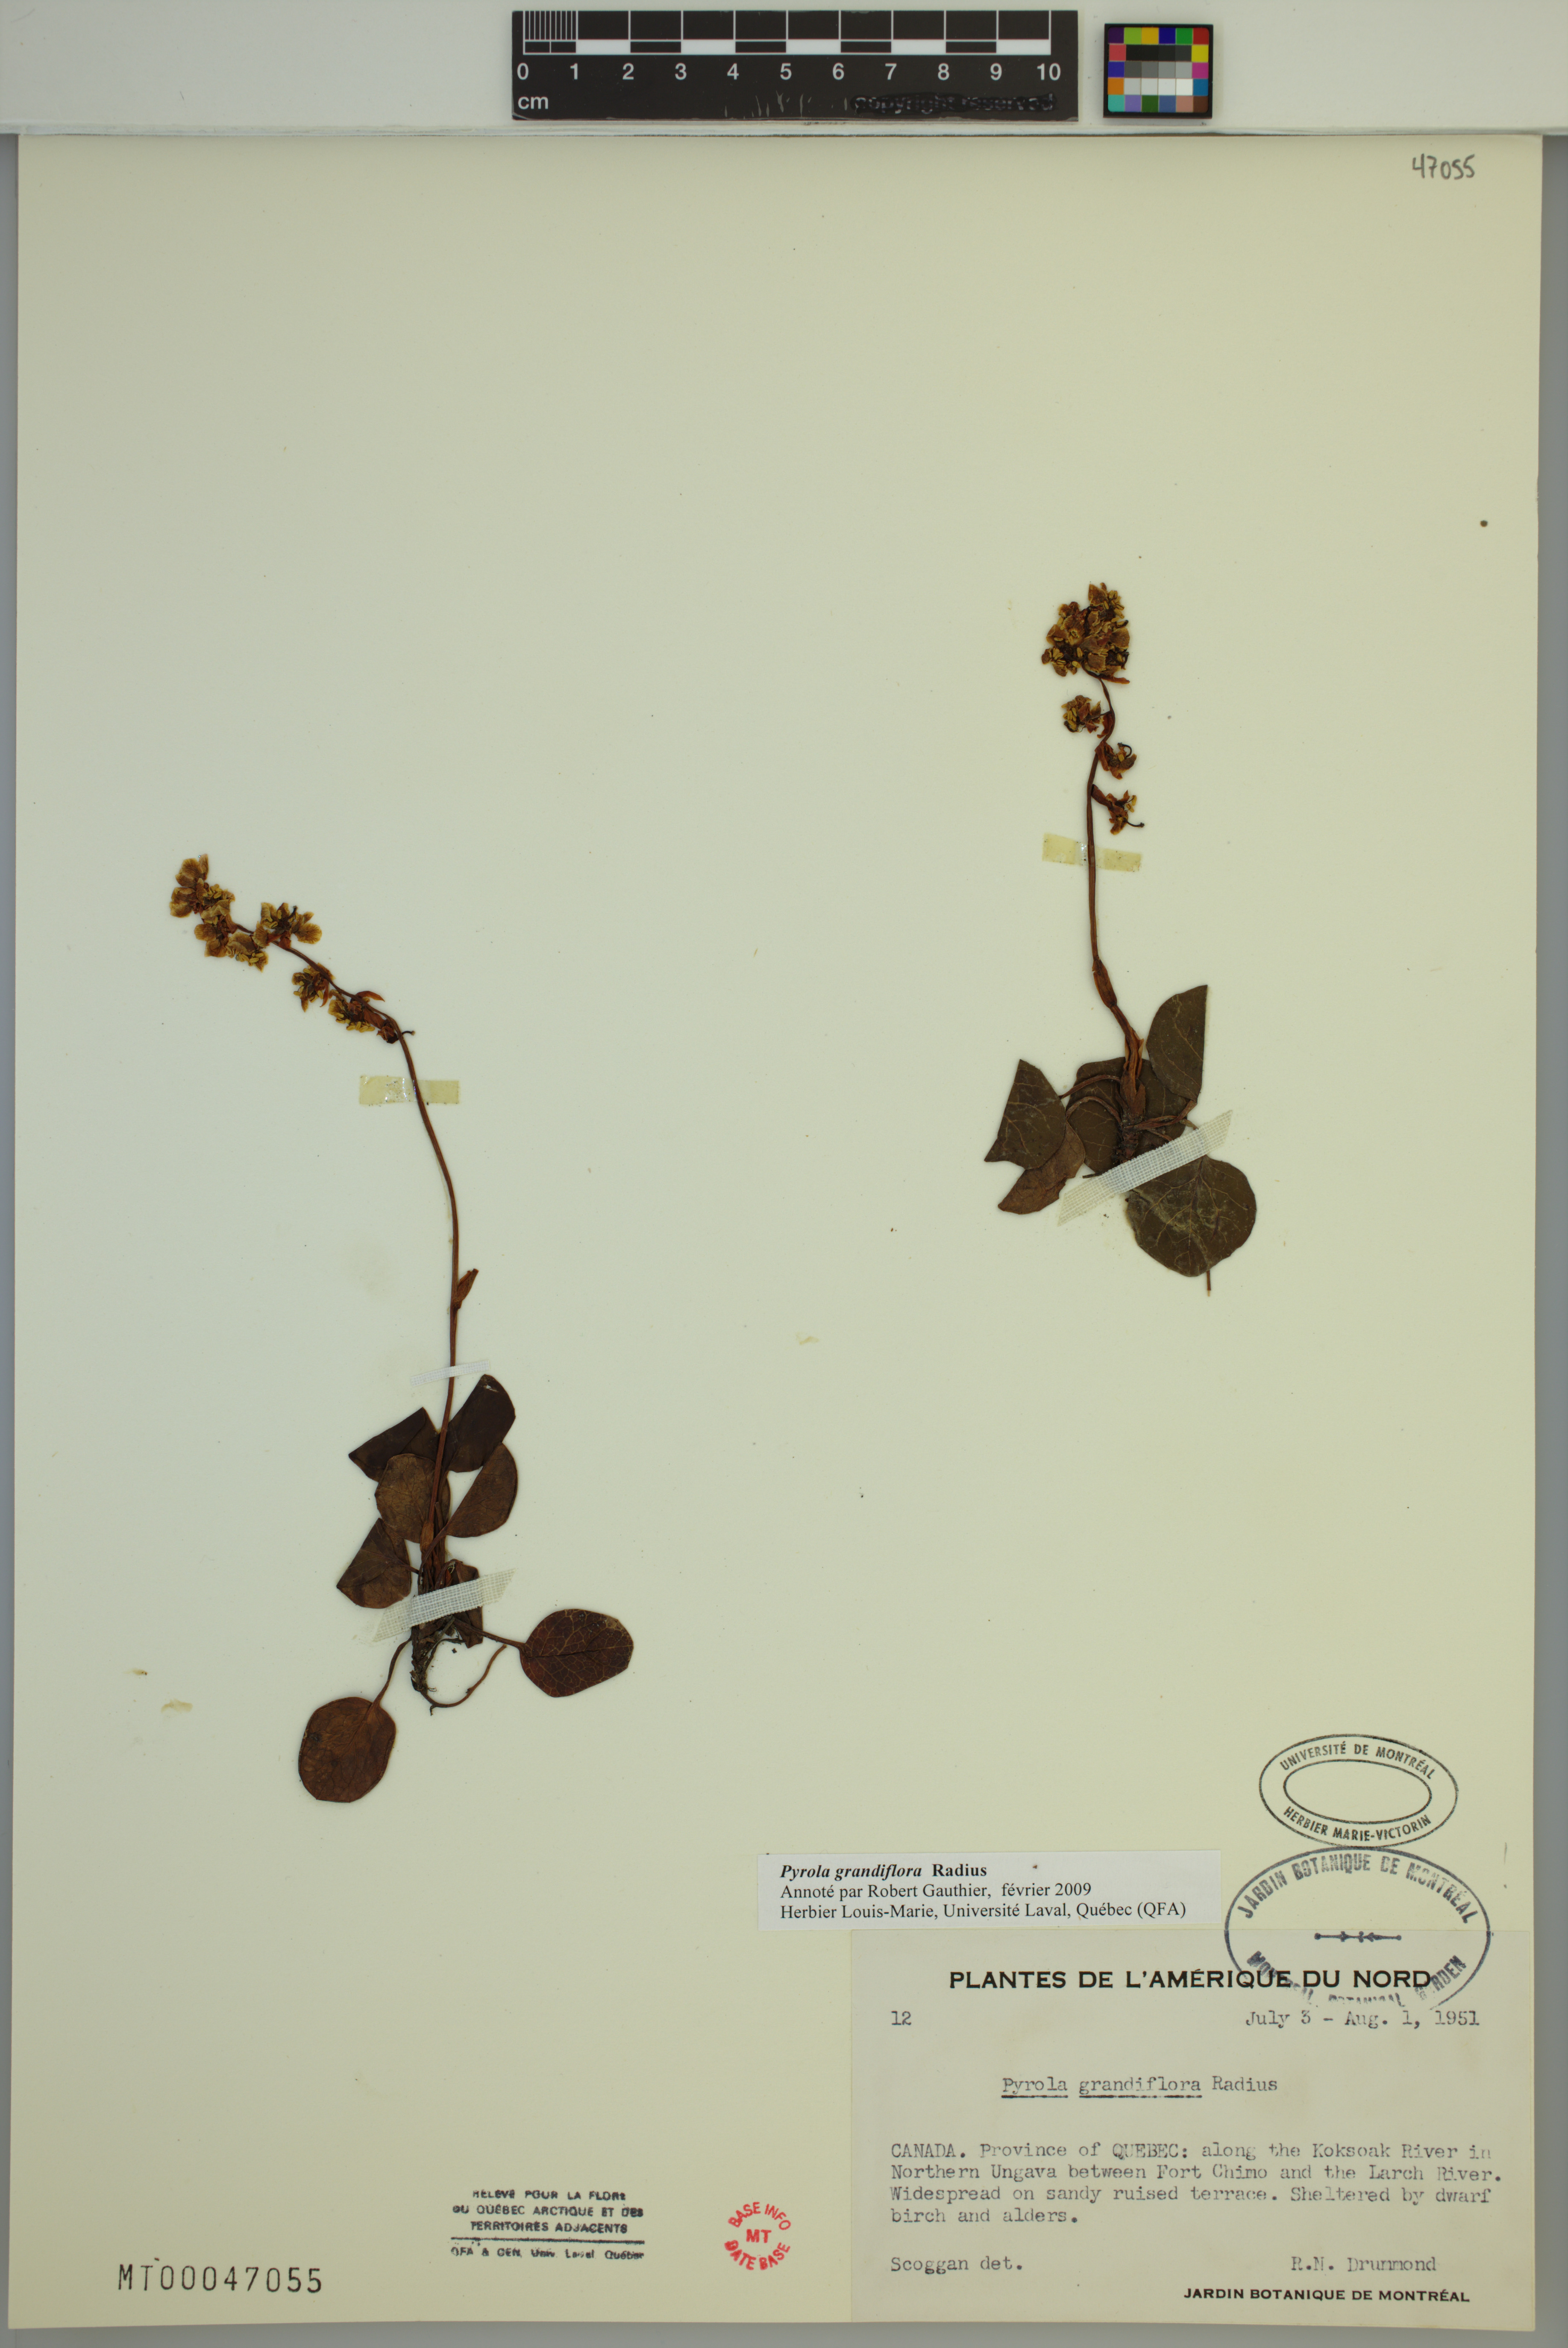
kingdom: Plantae
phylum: Tracheophyta
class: Magnoliopsida
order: Ericales
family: Ericaceae
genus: Pyrola
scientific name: Pyrola grandiflora
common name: Arctic pyrola
